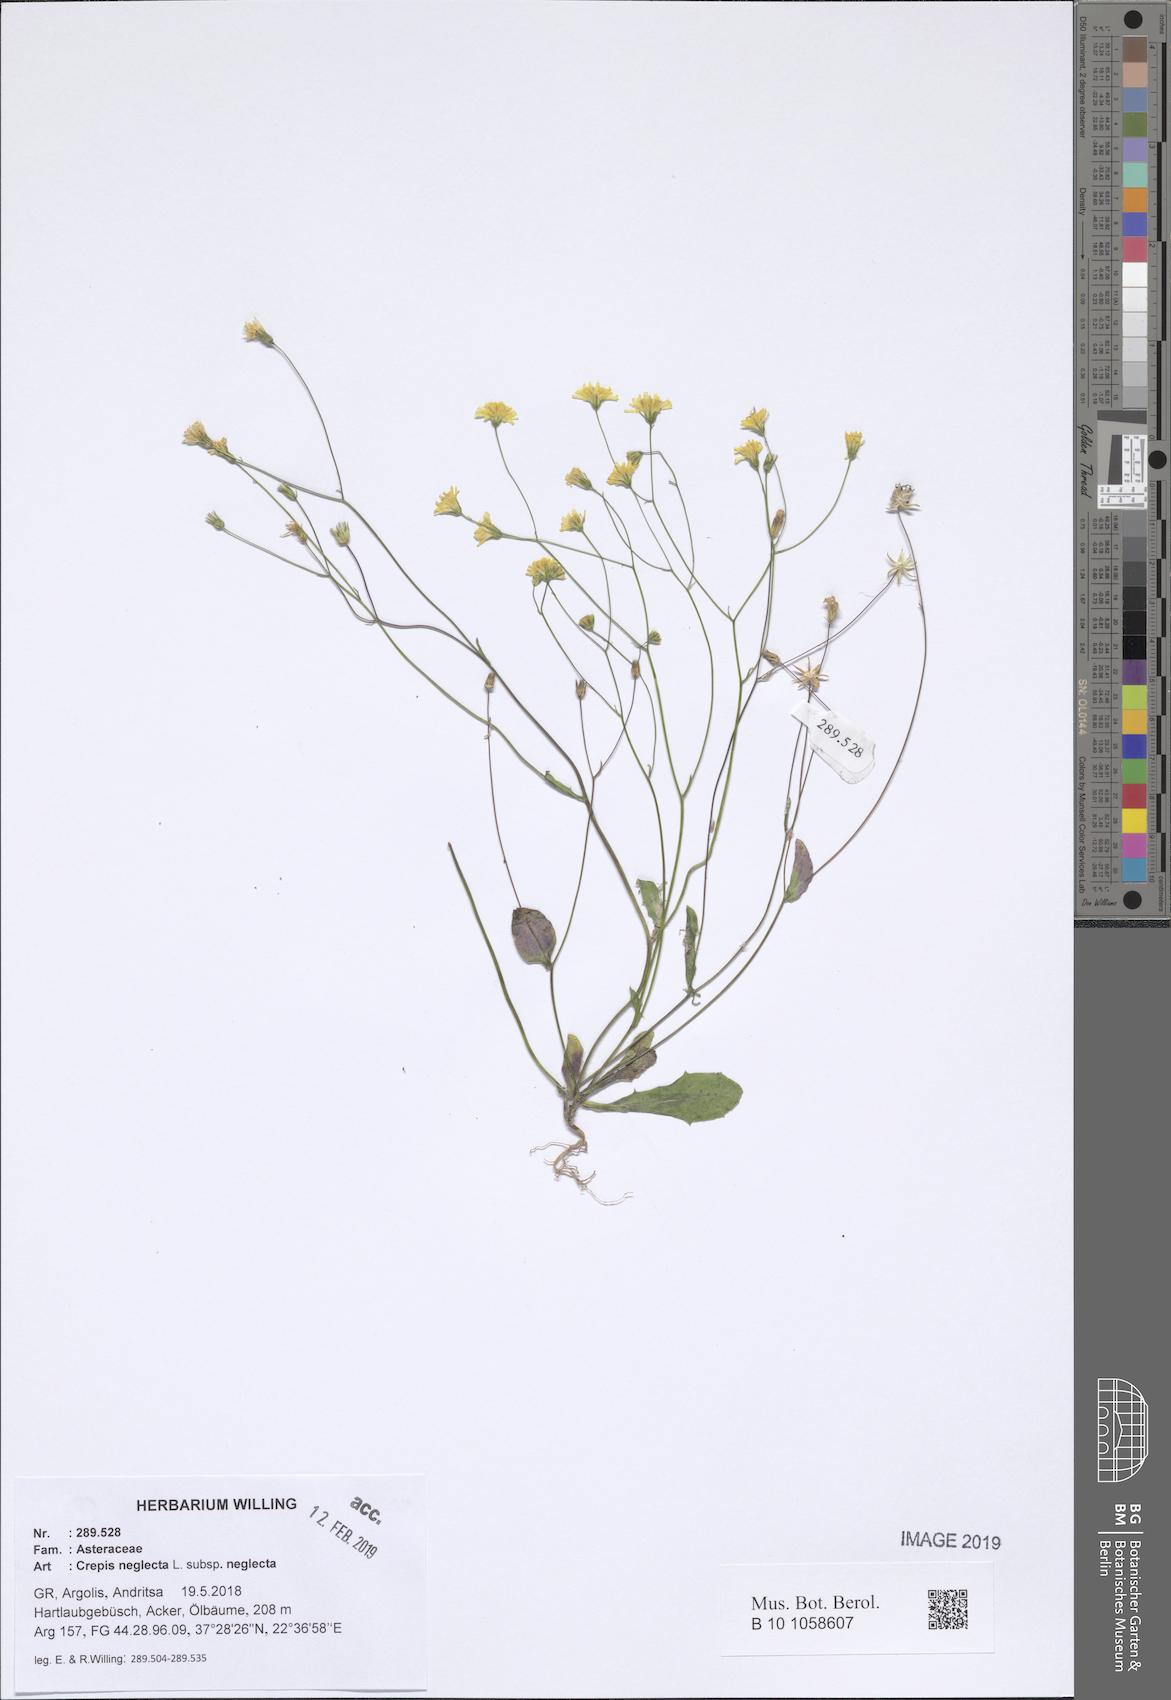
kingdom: Plantae
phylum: Tracheophyta
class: Magnoliopsida
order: Asterales
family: Asteraceae
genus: Crepis
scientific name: Crepis neglecta
